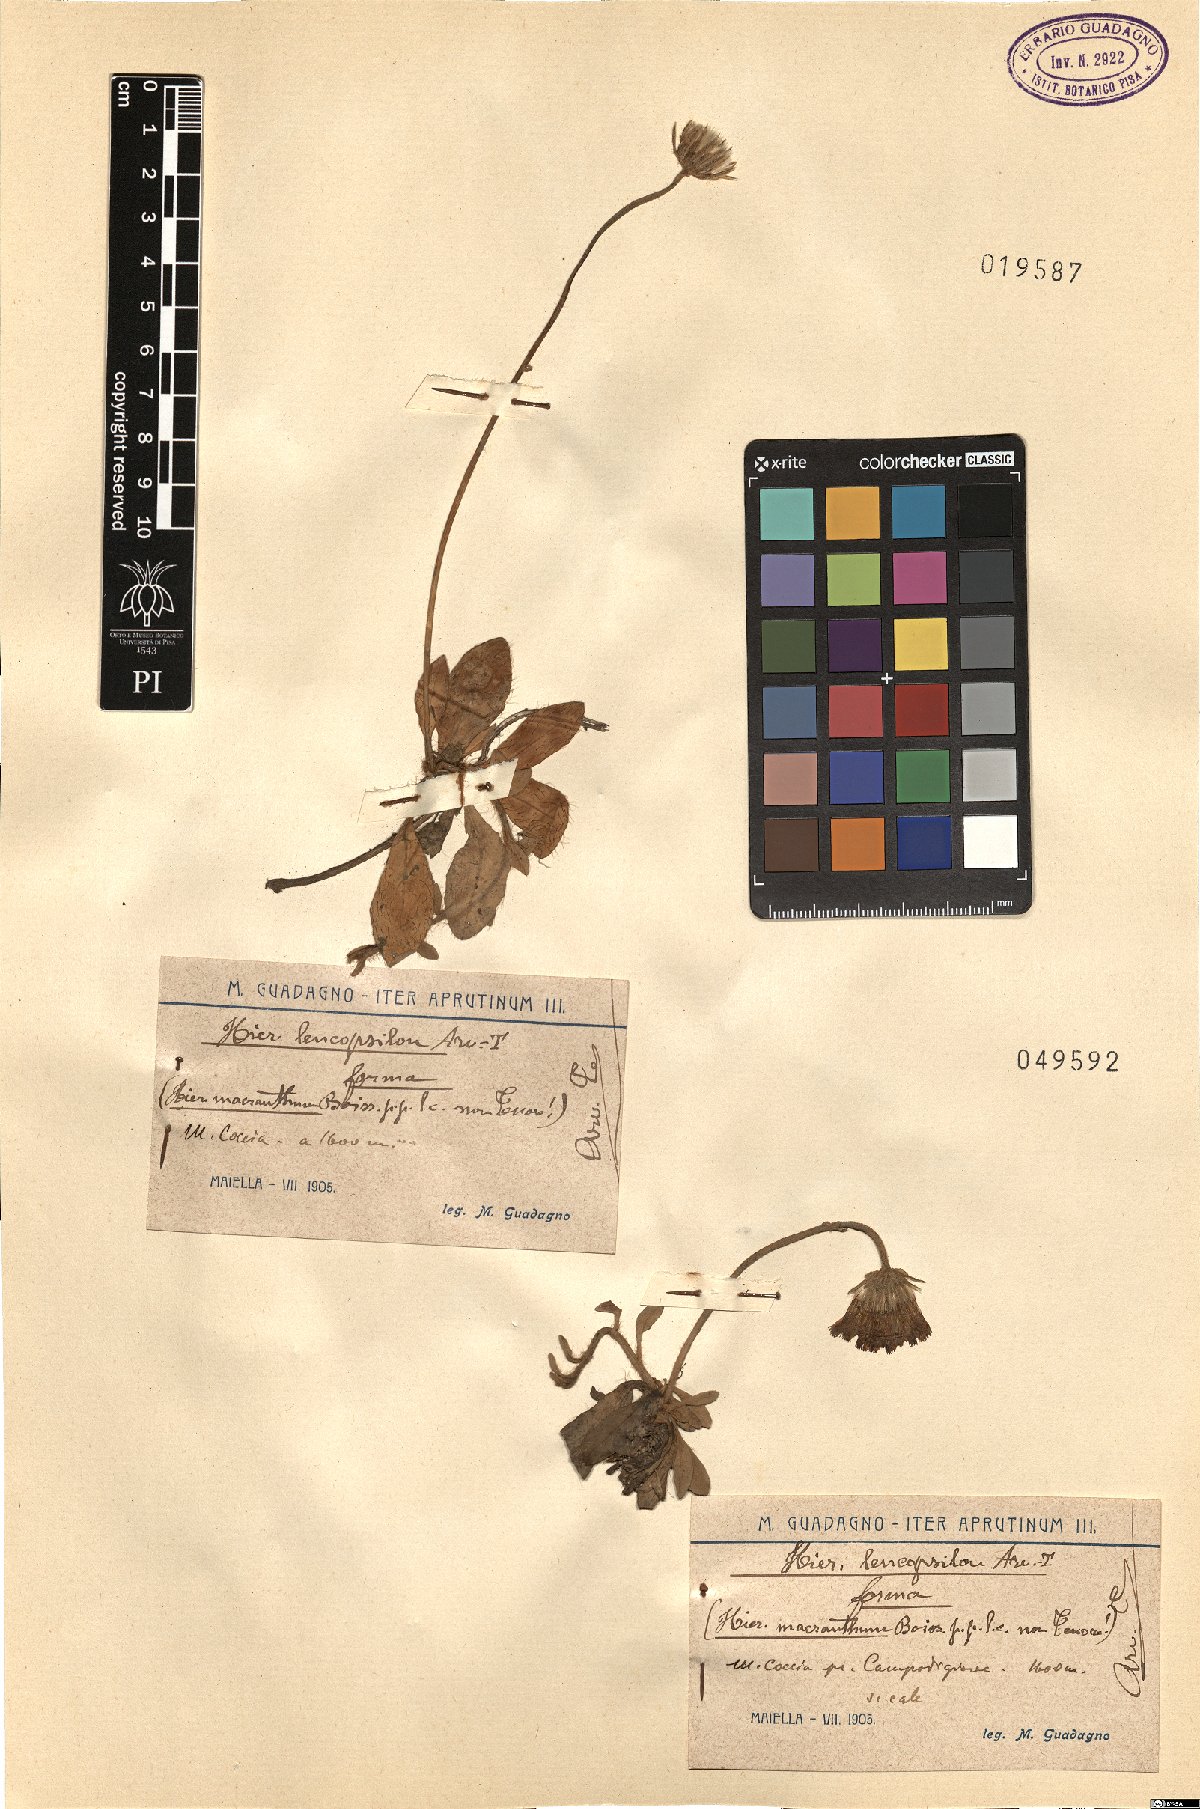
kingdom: Plantae
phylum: Tracheophyta
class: Magnoliopsida
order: Asterales
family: Asteraceae
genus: Pilosella
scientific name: Pilosella leucopsilon
